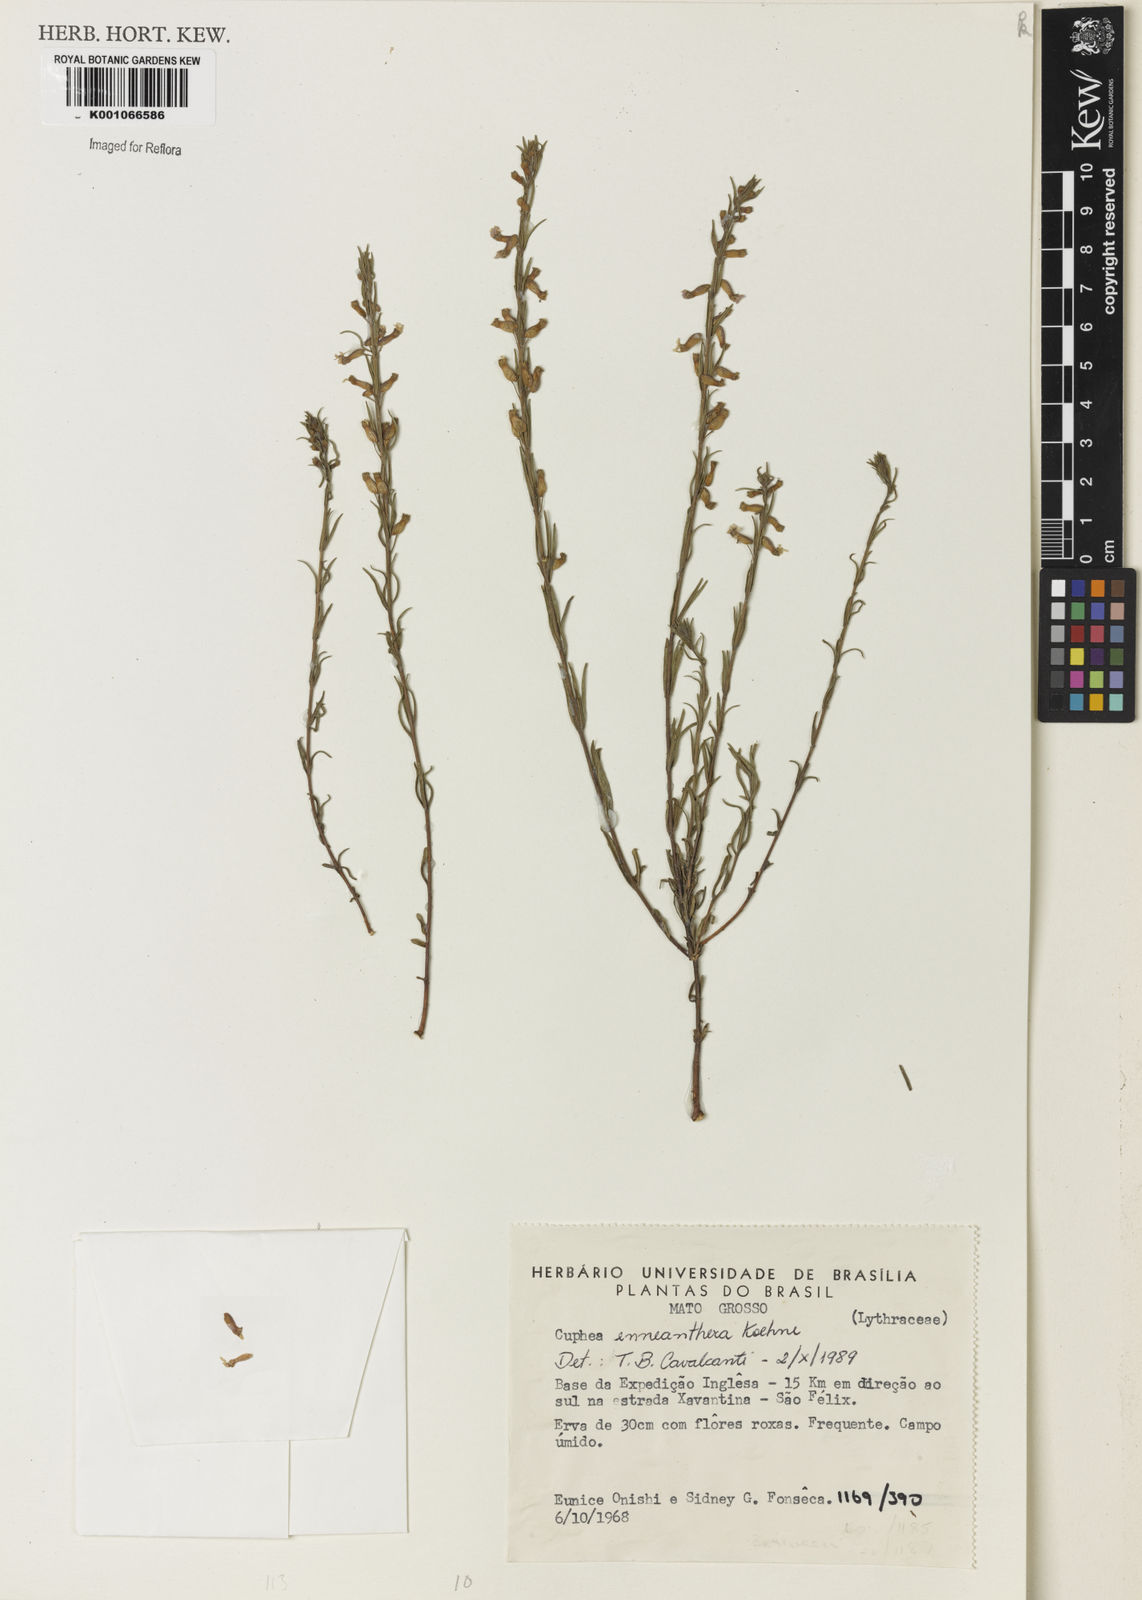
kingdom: Plantae
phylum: Tracheophyta
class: Magnoliopsida
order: Myrtales
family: Lythraceae
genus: Cuphea
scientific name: Cuphea retrorsicapilla
